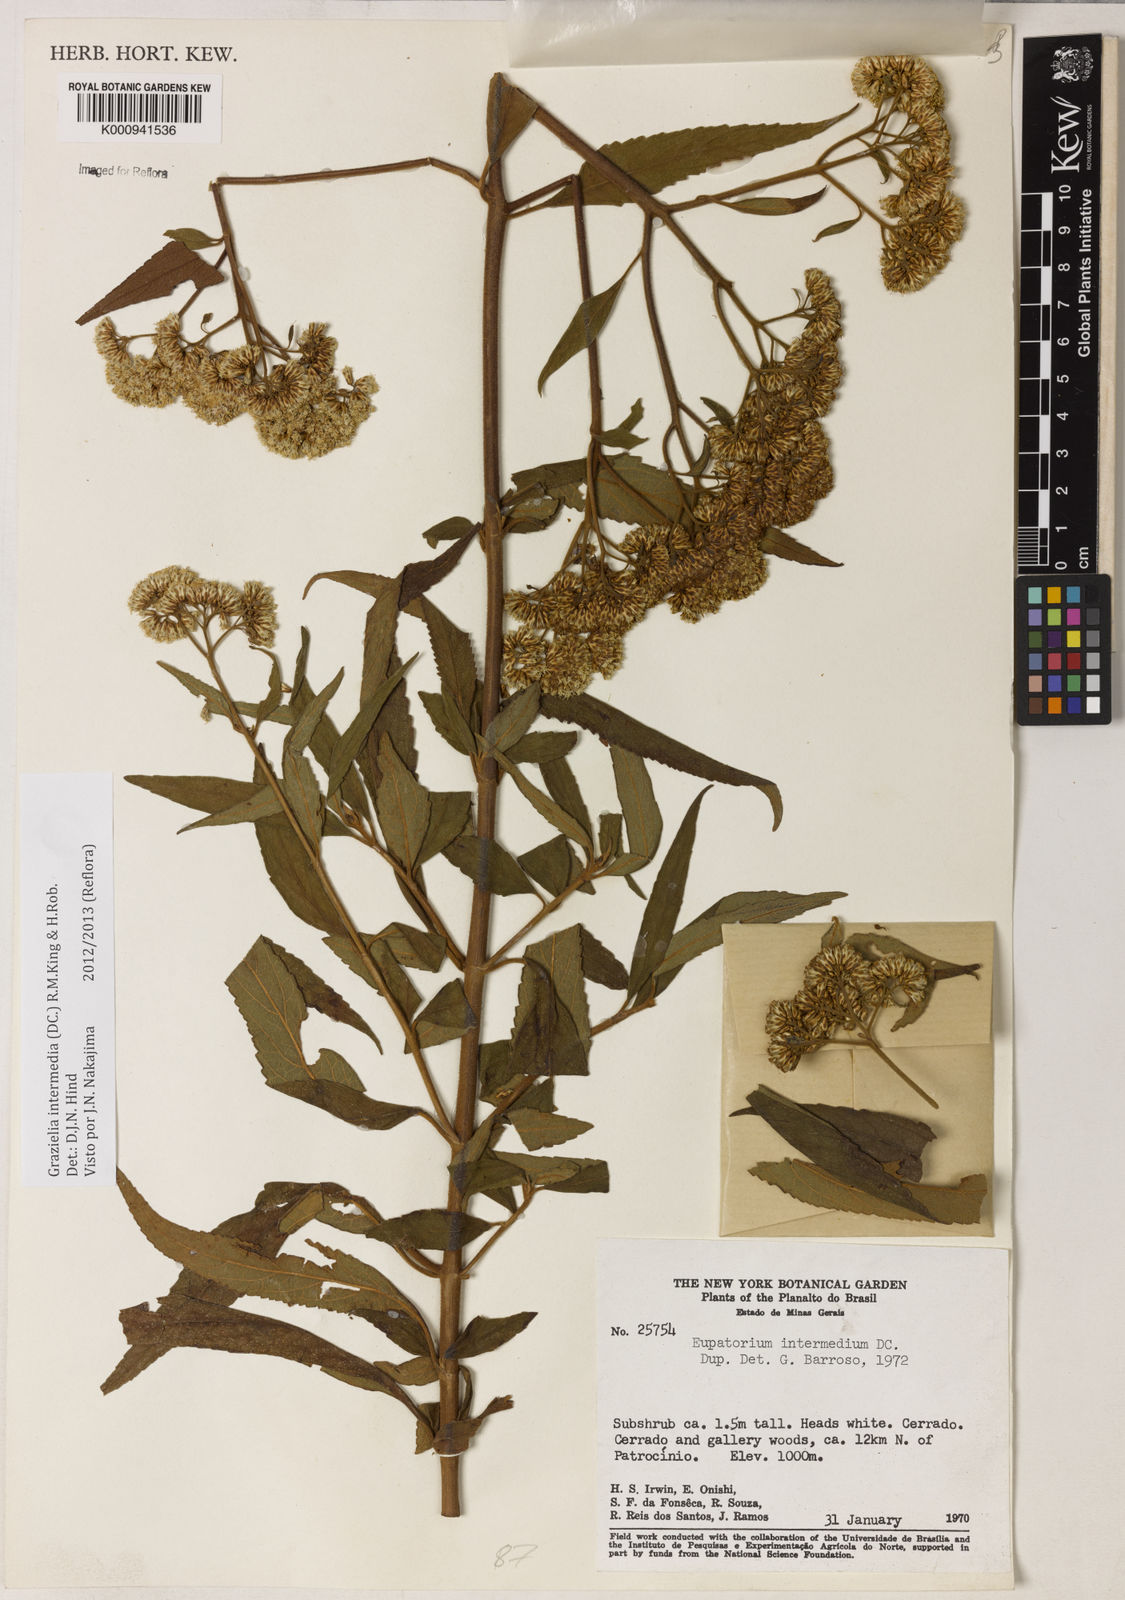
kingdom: Plantae
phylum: Tracheophyta
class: Magnoliopsida
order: Asterales
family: Asteraceae
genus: Grazielia
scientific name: Grazielia intermedia
